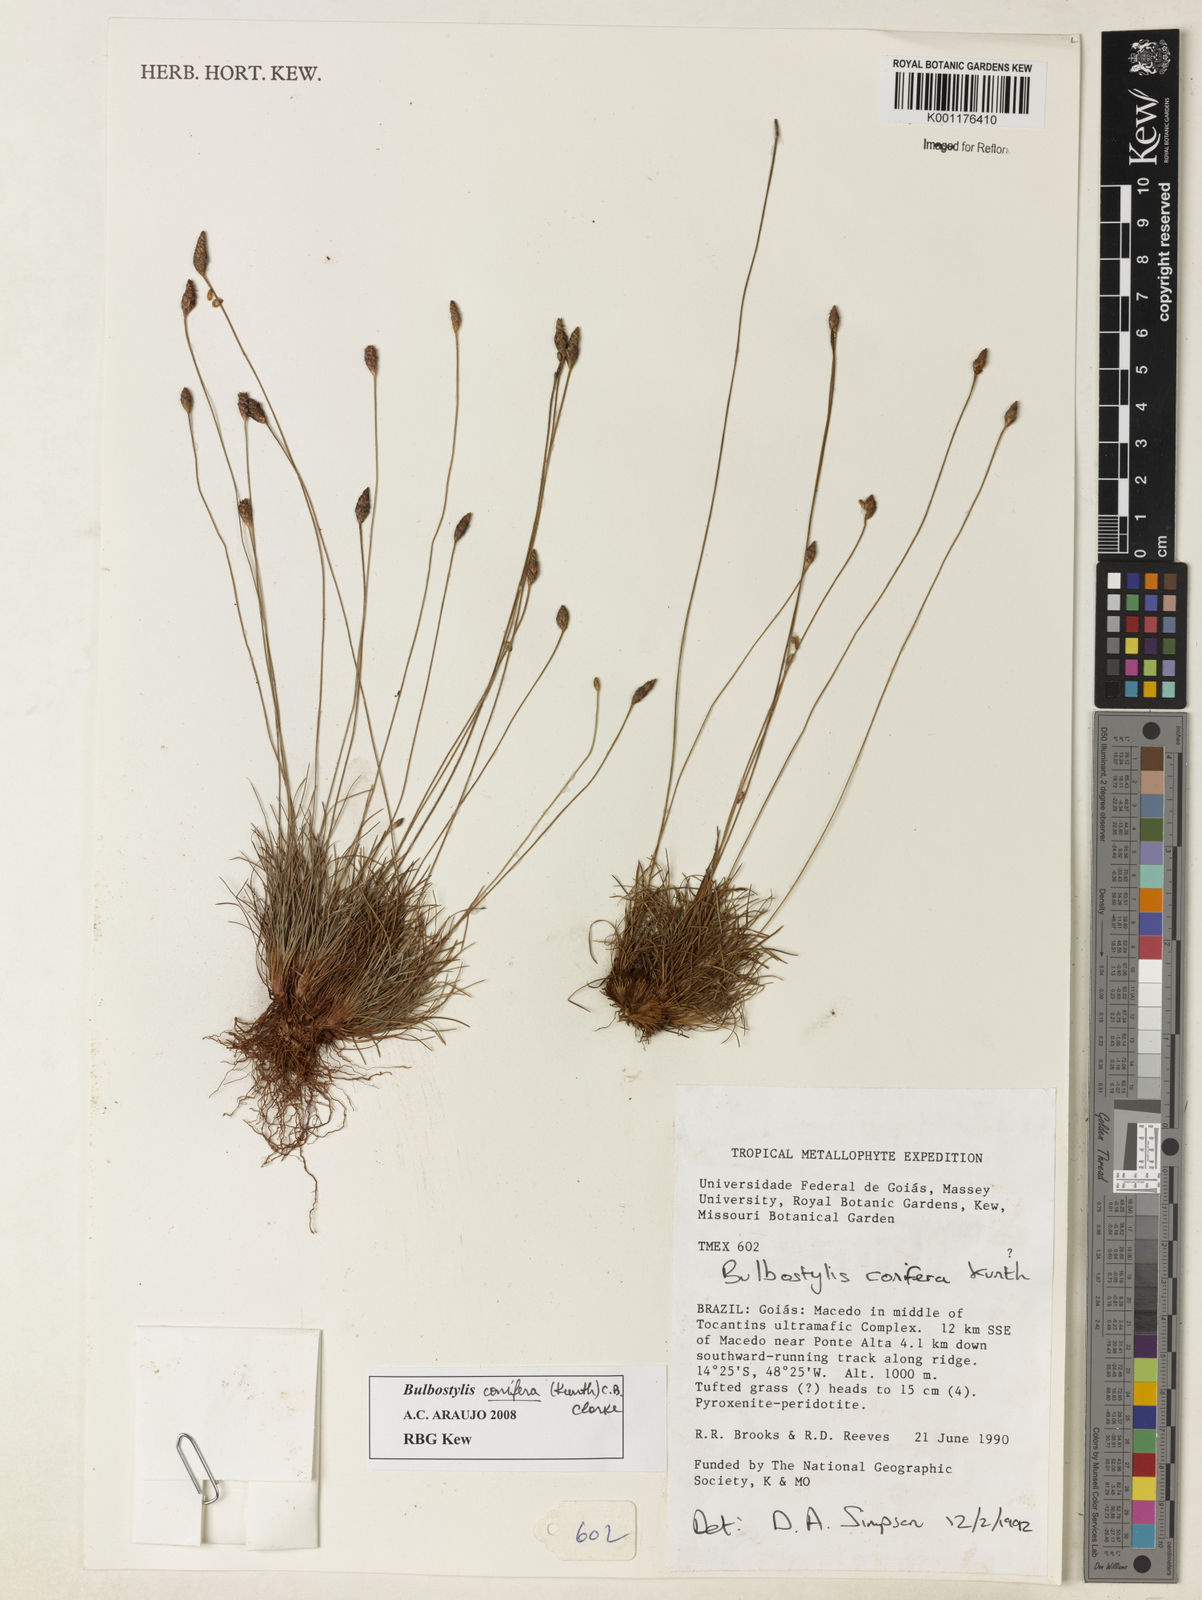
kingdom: Plantae
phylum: Tracheophyta
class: Liliopsida
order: Poales
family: Cyperaceae
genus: Bulbostylis
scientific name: Bulbostylis conifera
